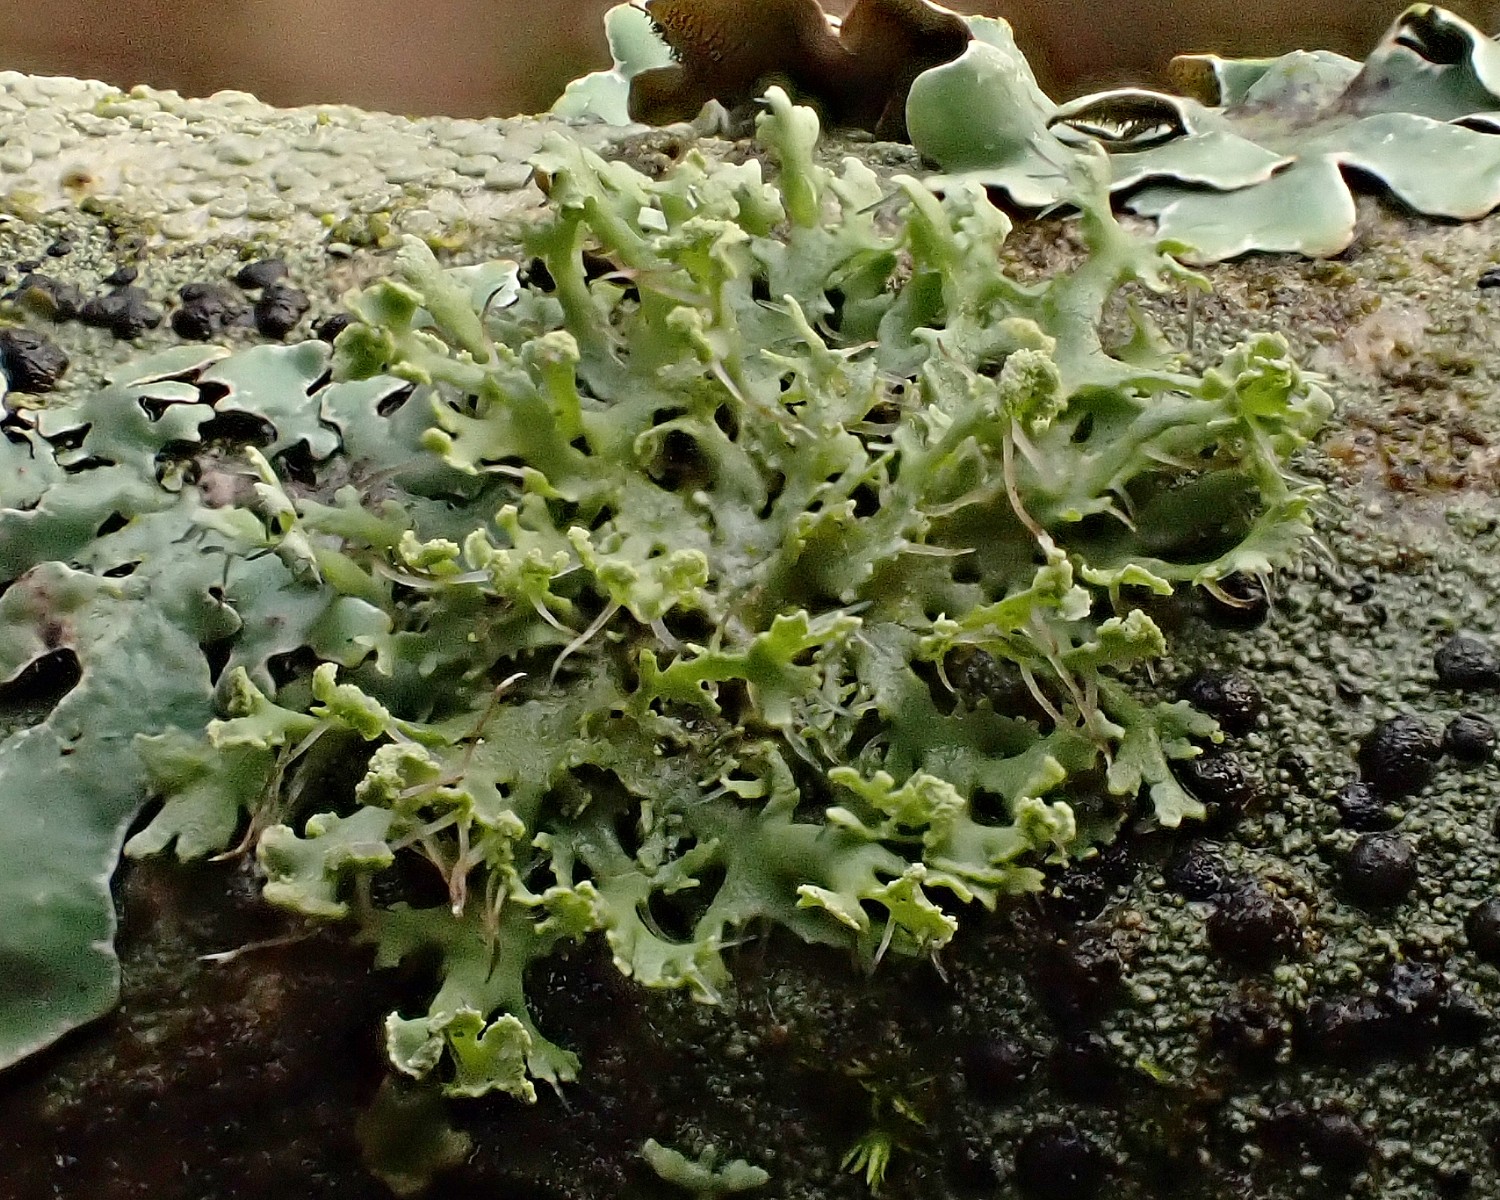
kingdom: Fungi
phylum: Ascomycota
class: Lecanoromycetes
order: Caliciales
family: Physciaceae
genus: Physcia
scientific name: Physcia tenella
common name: spæd rosetlav
